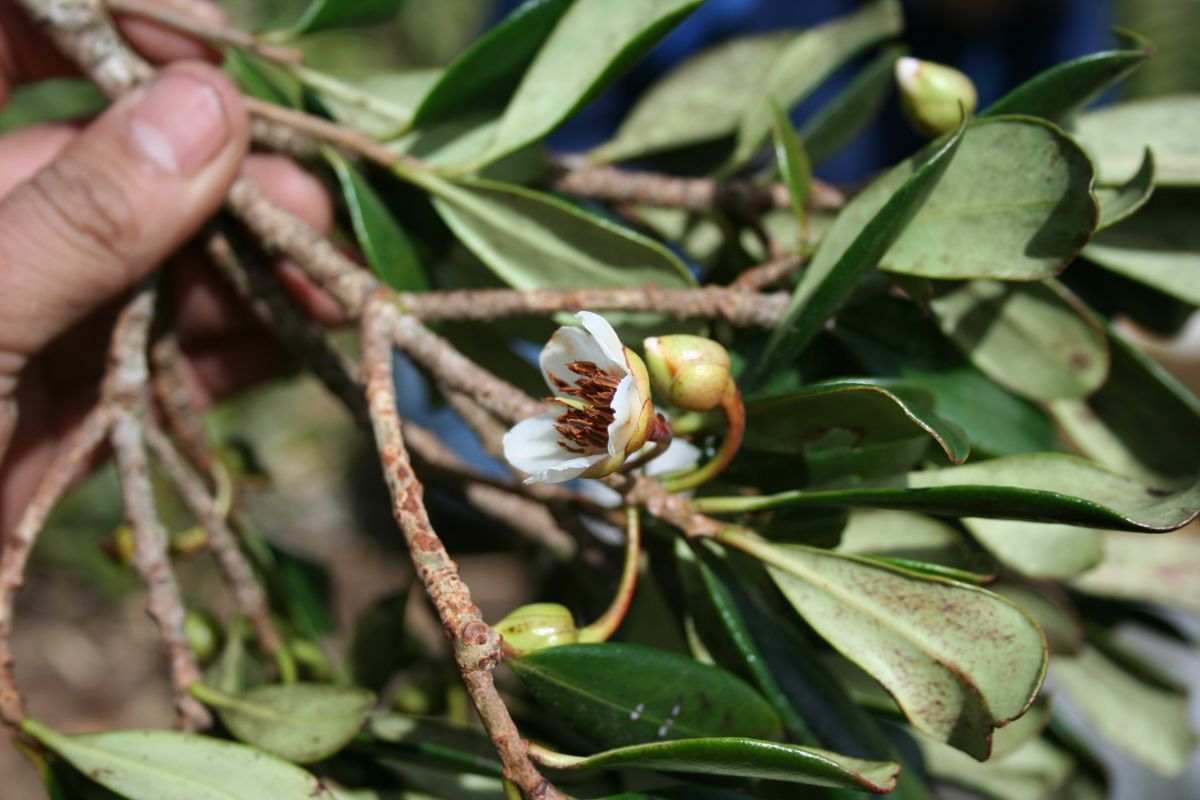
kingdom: Plantae
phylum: Tracheophyta
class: Magnoliopsida
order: Ericales
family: Pentaphylacaceae
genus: Ternstroemia
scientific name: Ternstroemia lineata
